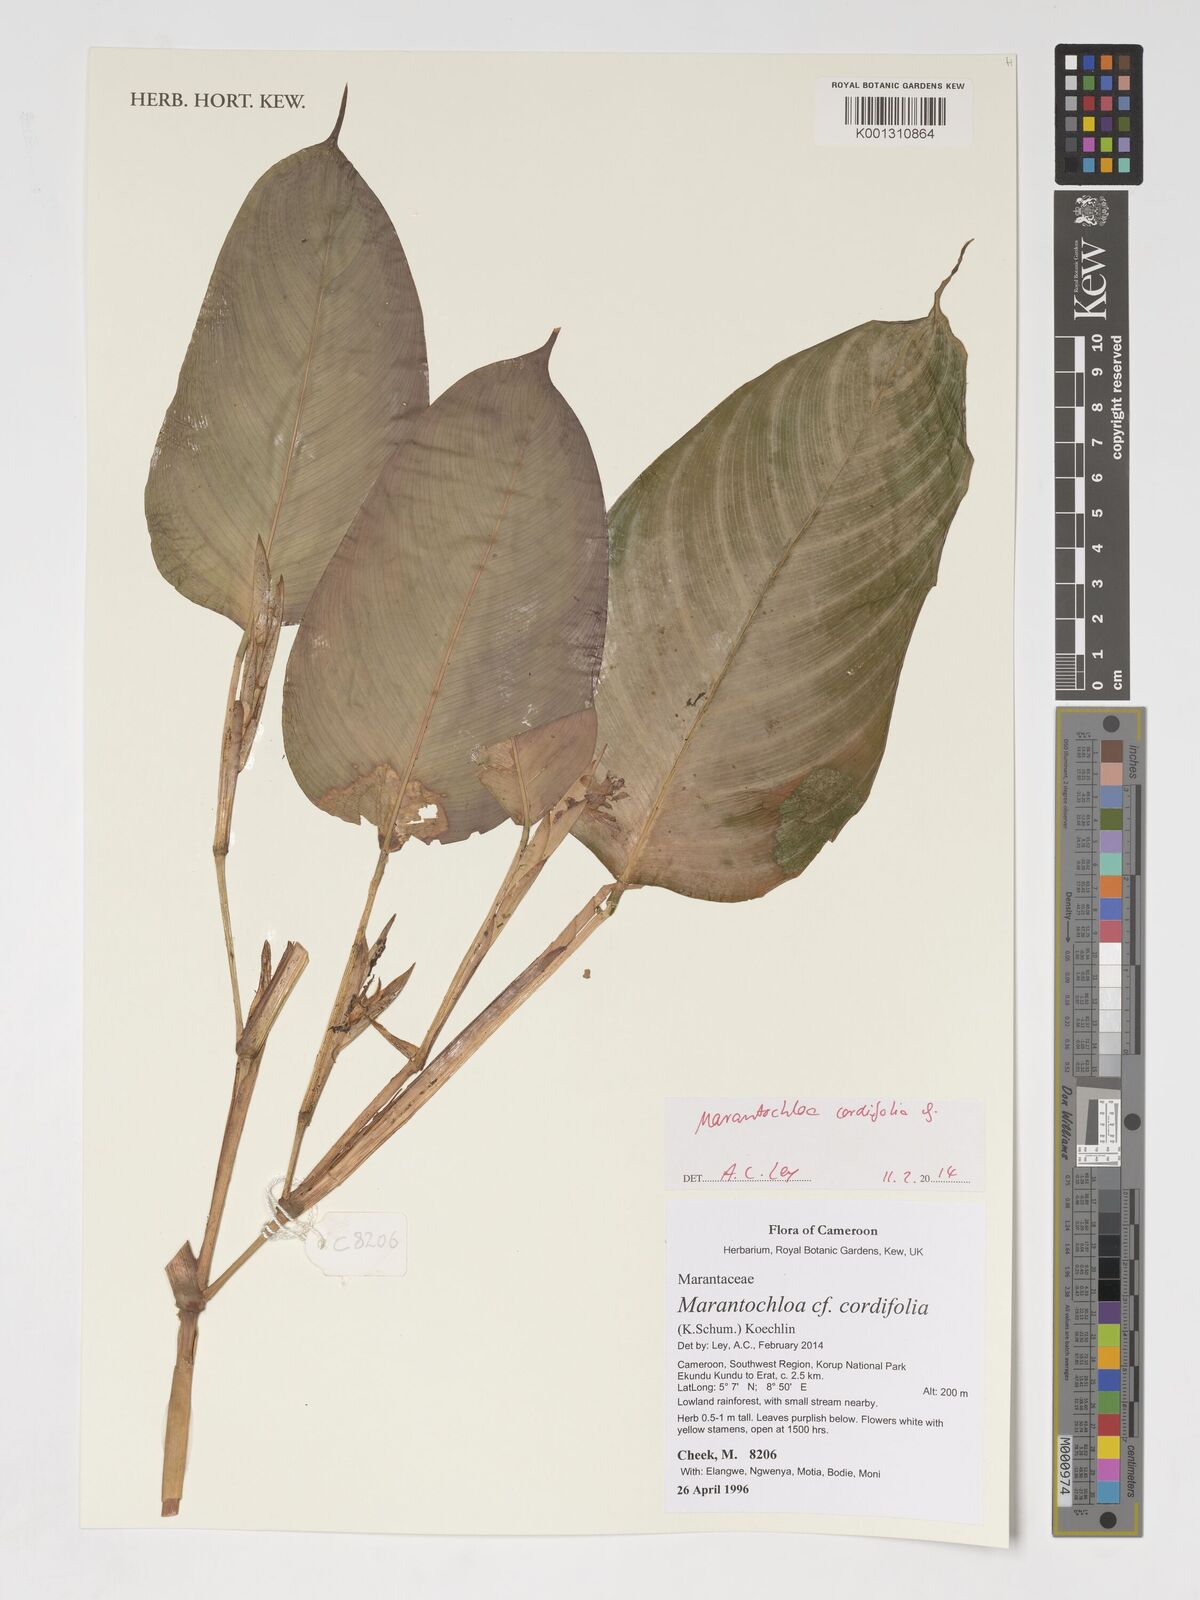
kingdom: Plantae
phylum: Tracheophyta
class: Liliopsida
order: Zingiberales
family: Marantaceae
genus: Marantochloa
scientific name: Marantochloa cordifolia
